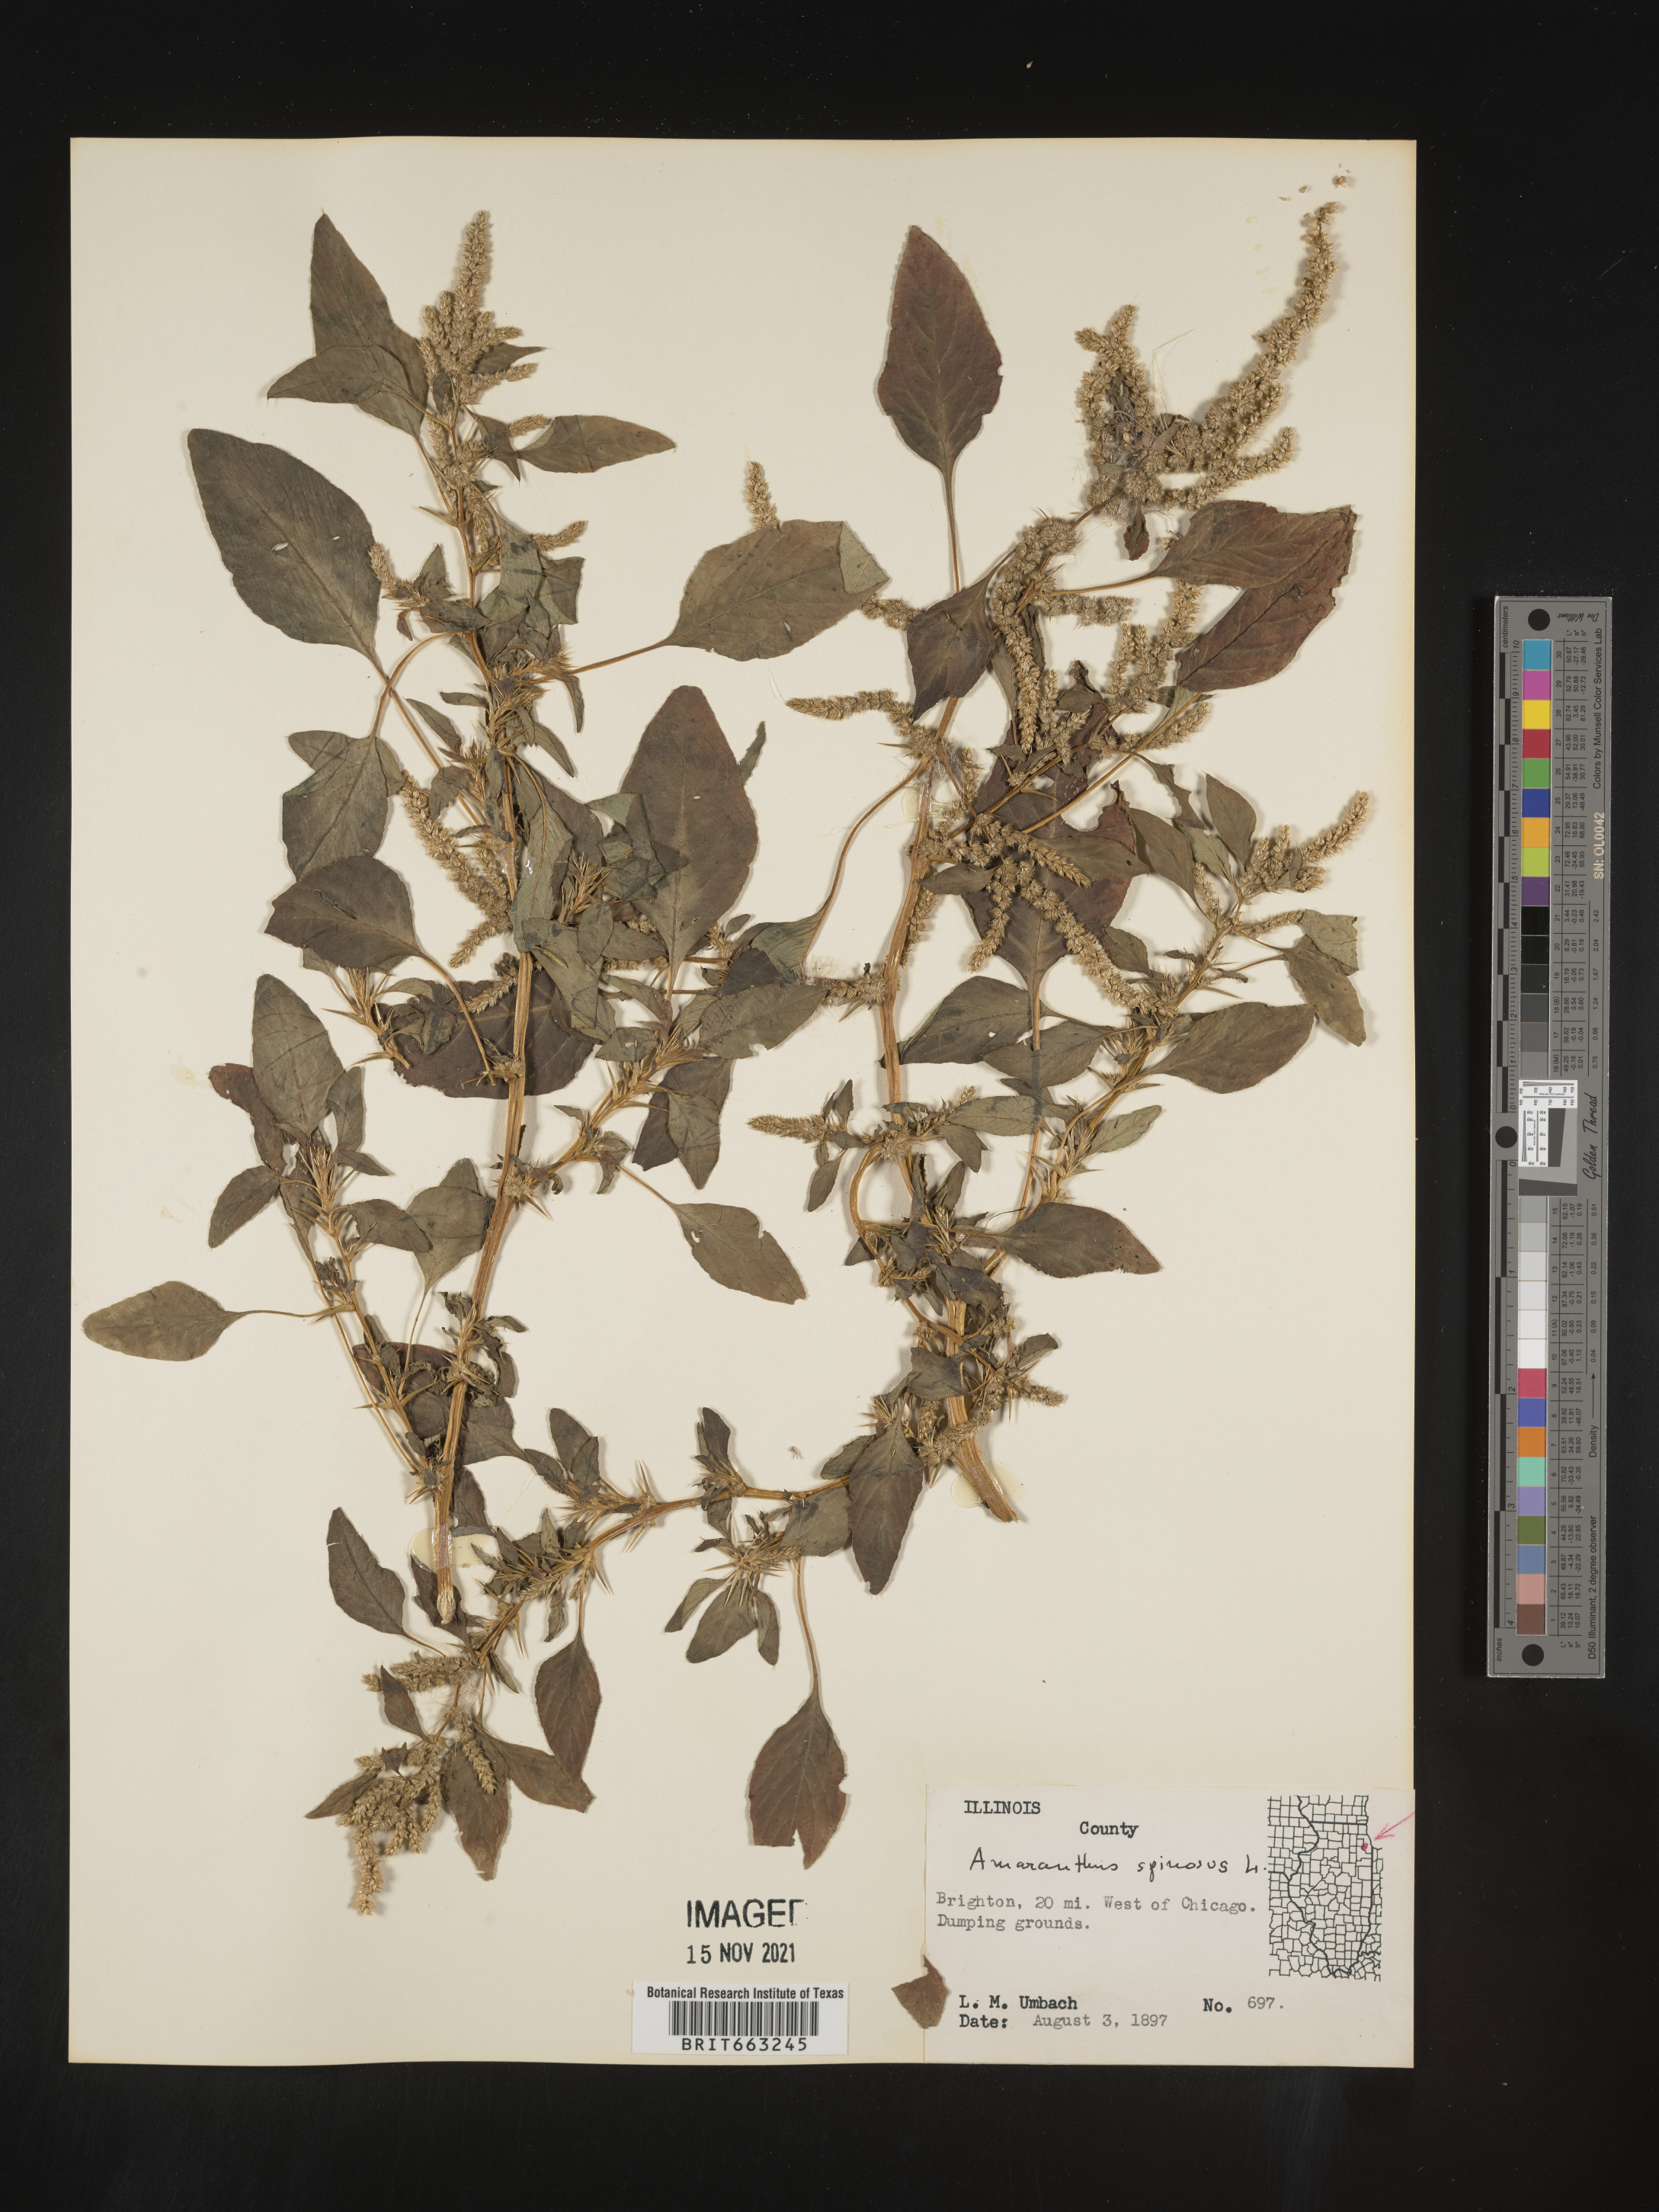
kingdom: Plantae
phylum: Tracheophyta
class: Magnoliopsida
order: Caryophyllales
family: Amaranthaceae
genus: Amaranthus
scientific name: Amaranthus spinosus
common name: Spiny amaranth
